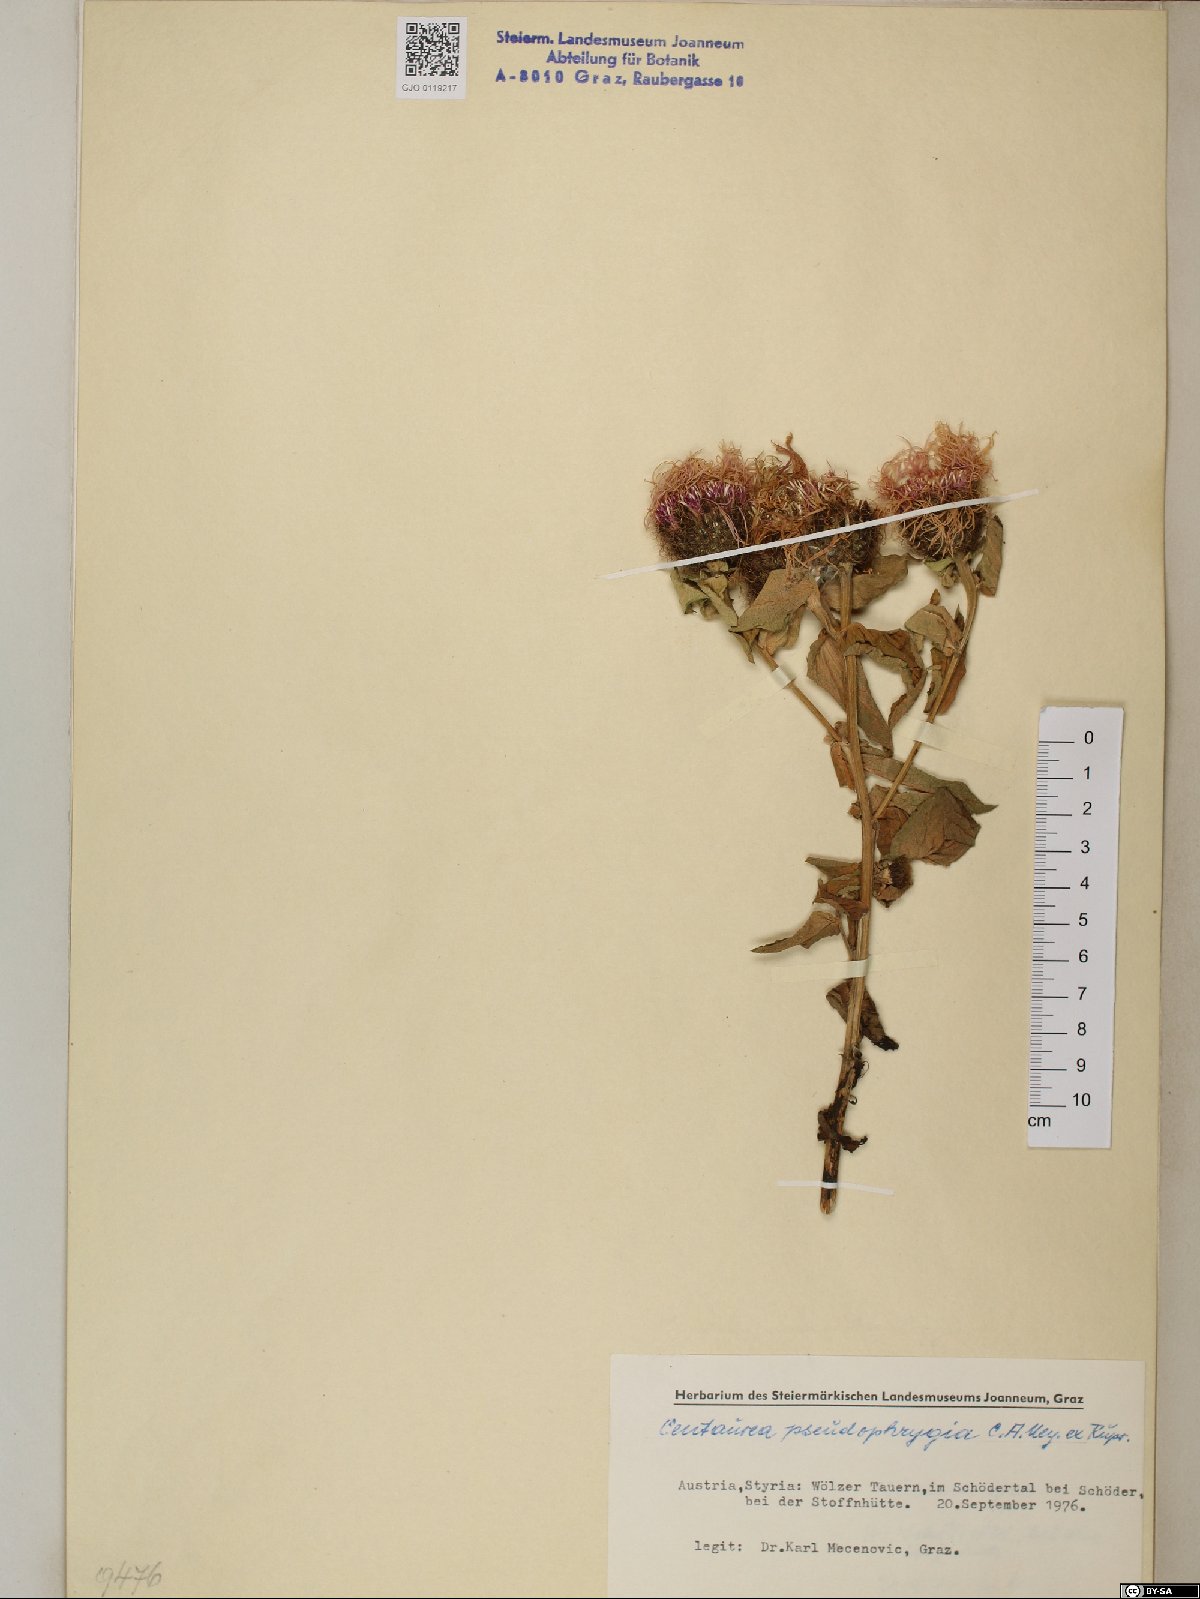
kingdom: Plantae
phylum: Tracheophyta
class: Magnoliopsida
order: Asterales
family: Asteraceae
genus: Centaurea
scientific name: Centaurea pseudophrygia
